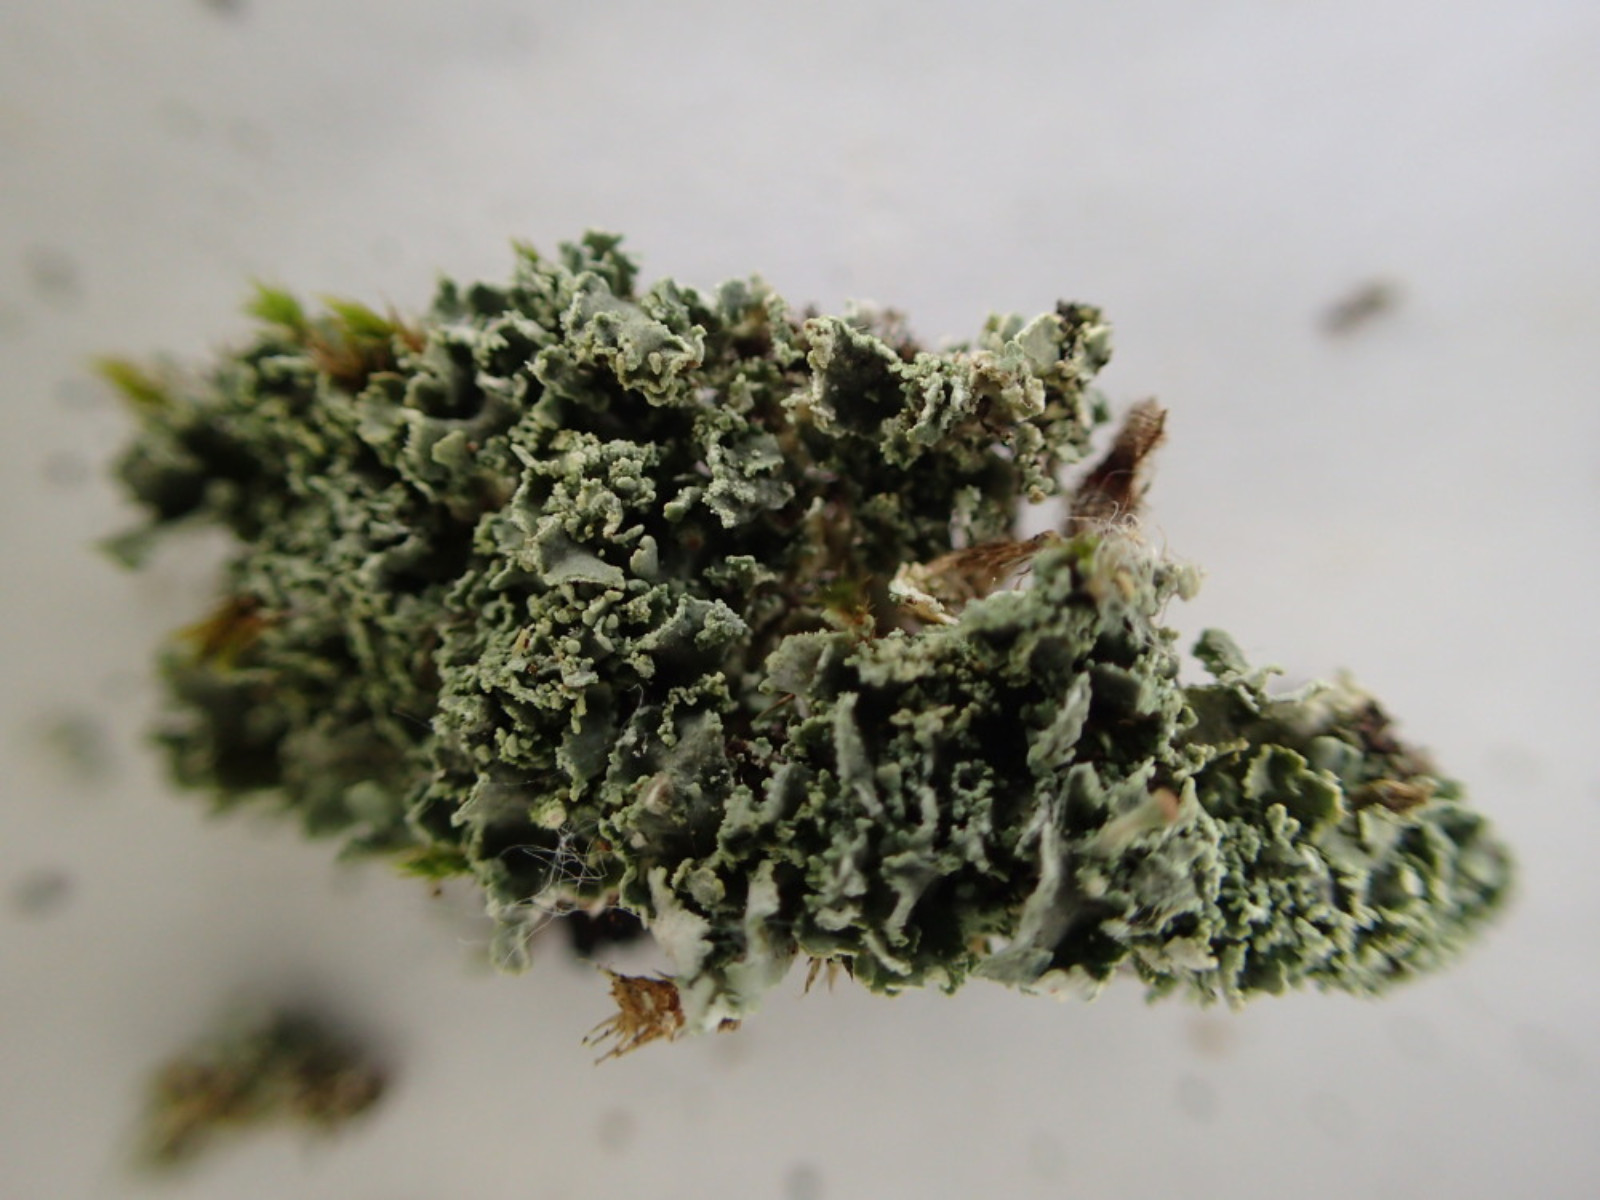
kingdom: Fungi
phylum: Ascomycota
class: Lecanoromycetes
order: Lecanorales
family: Cladoniaceae
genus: Cladonia
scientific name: Cladonia
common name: brungrøn bægerlav
